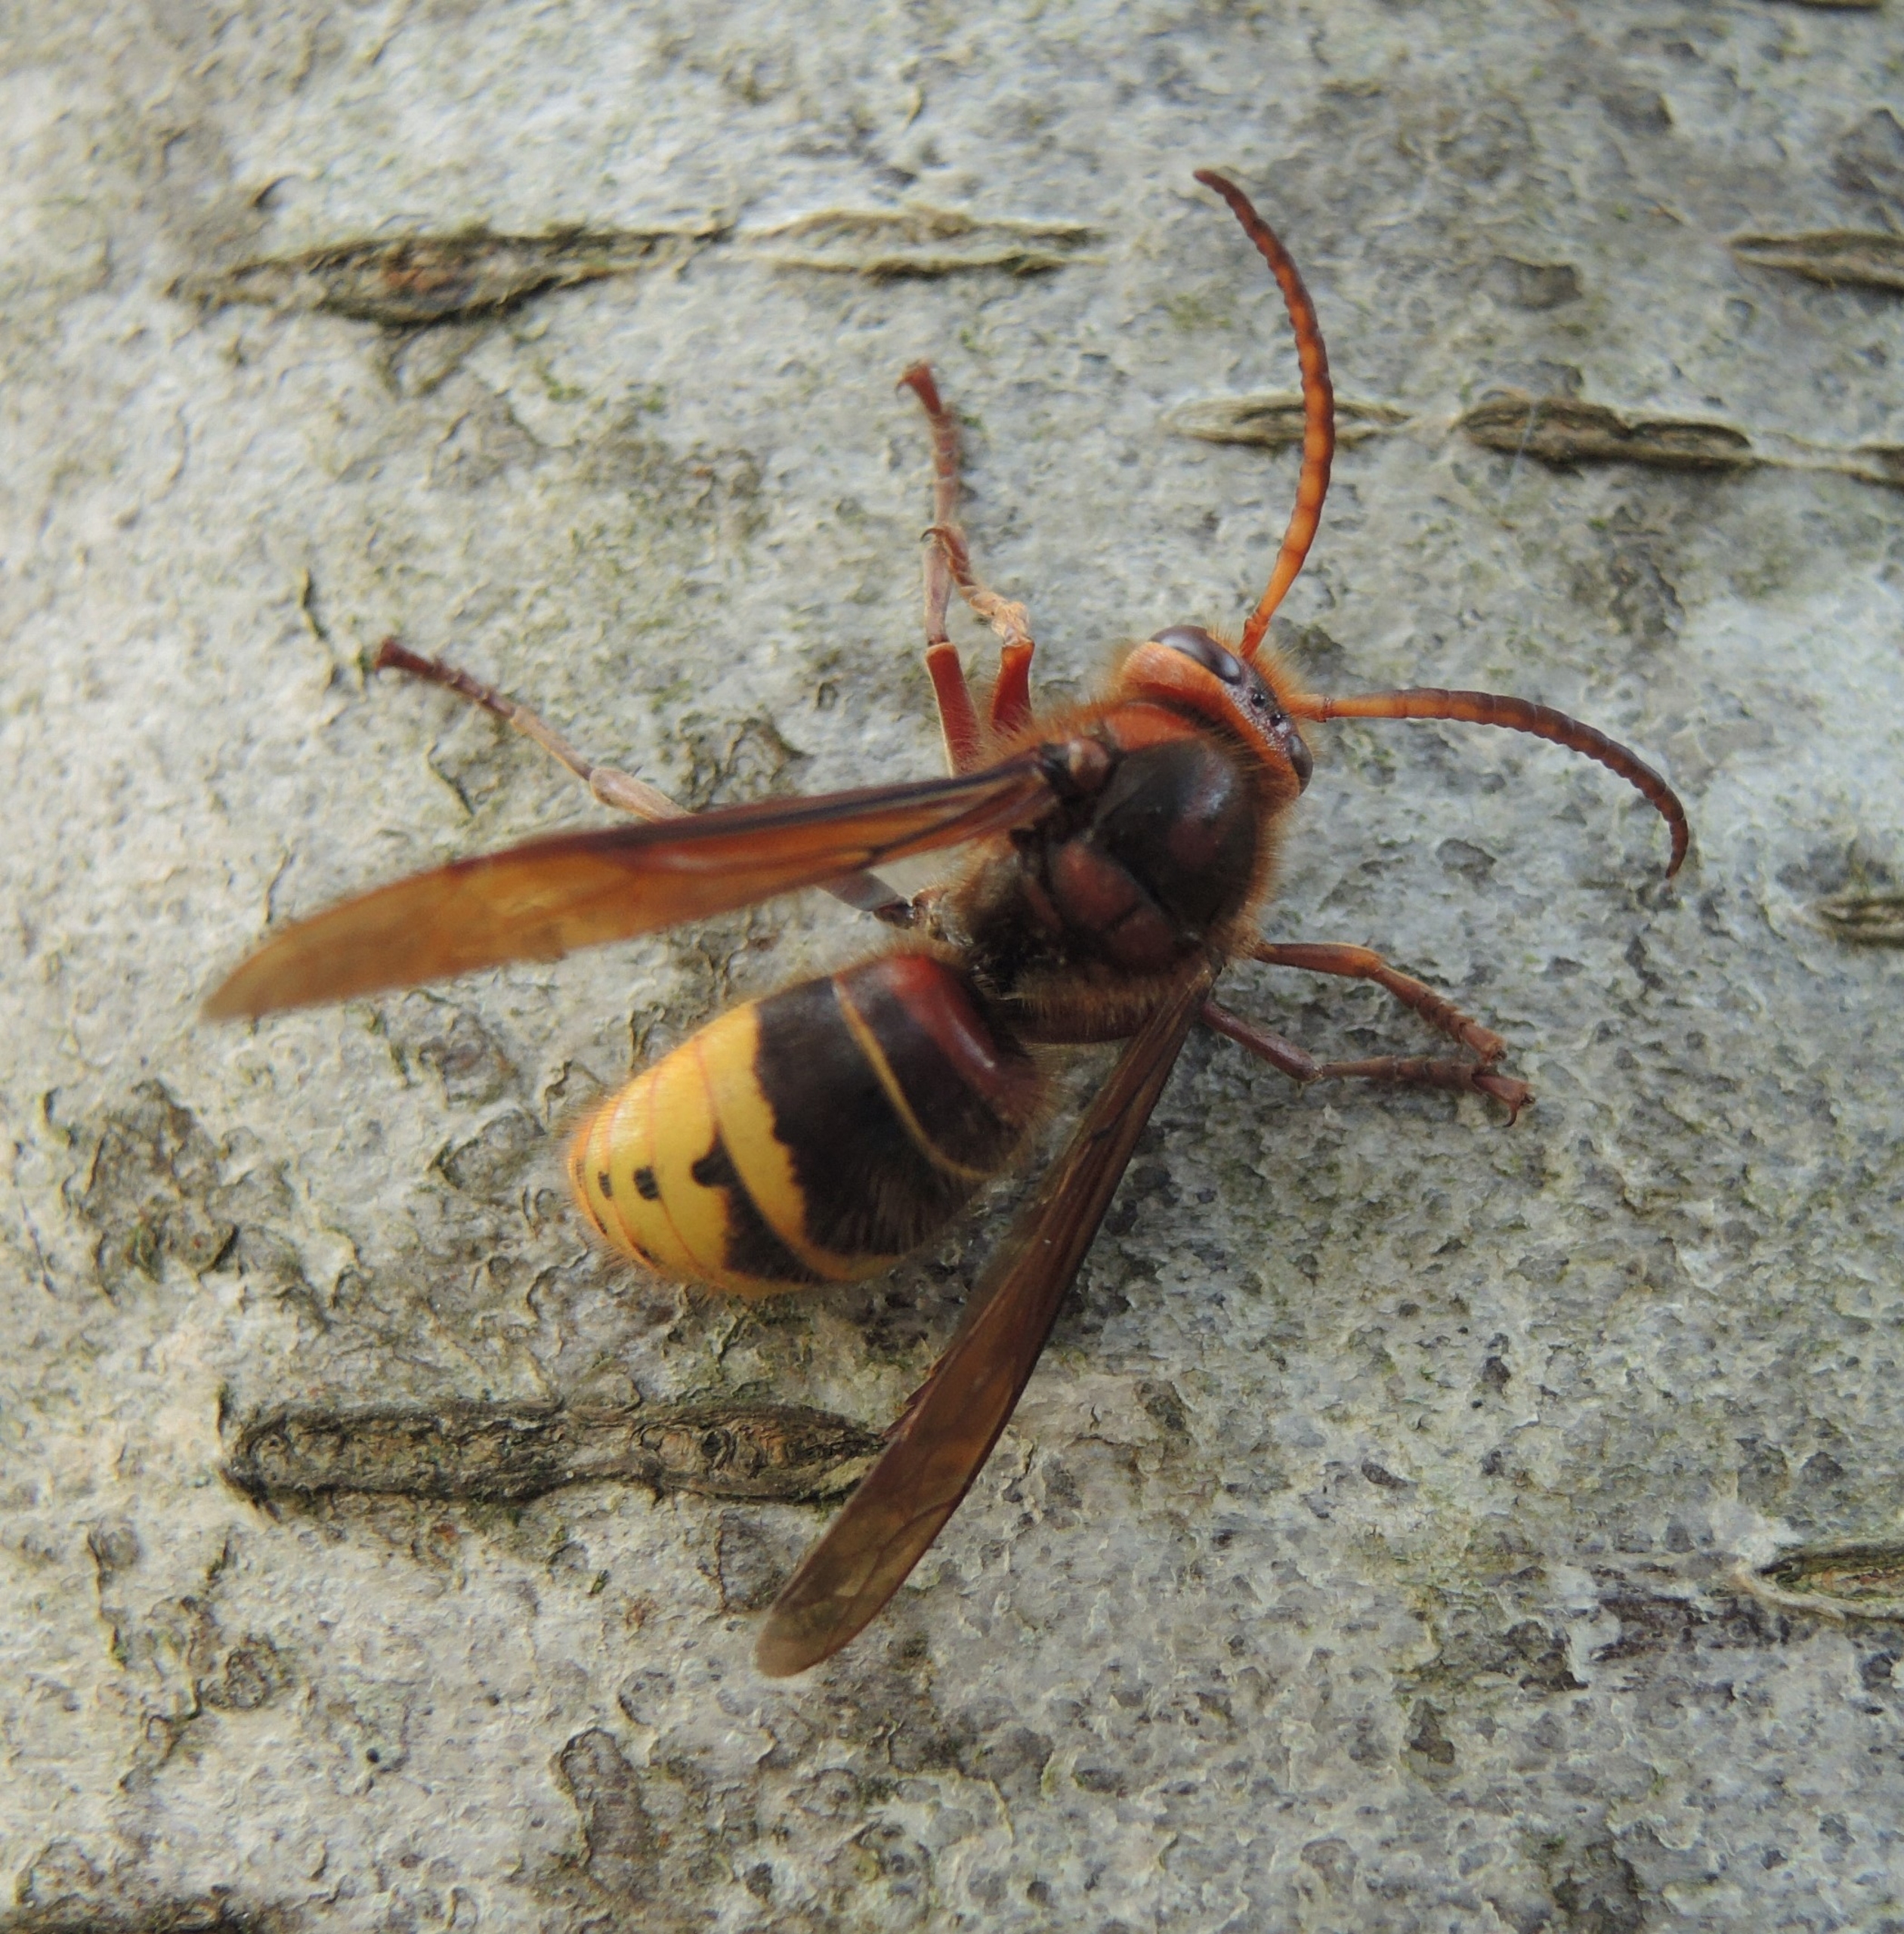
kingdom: Animalia
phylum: Arthropoda
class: Insecta
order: Hymenoptera
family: Vespidae
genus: Vespa
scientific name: Vespa crabro
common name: Stor gedehams
